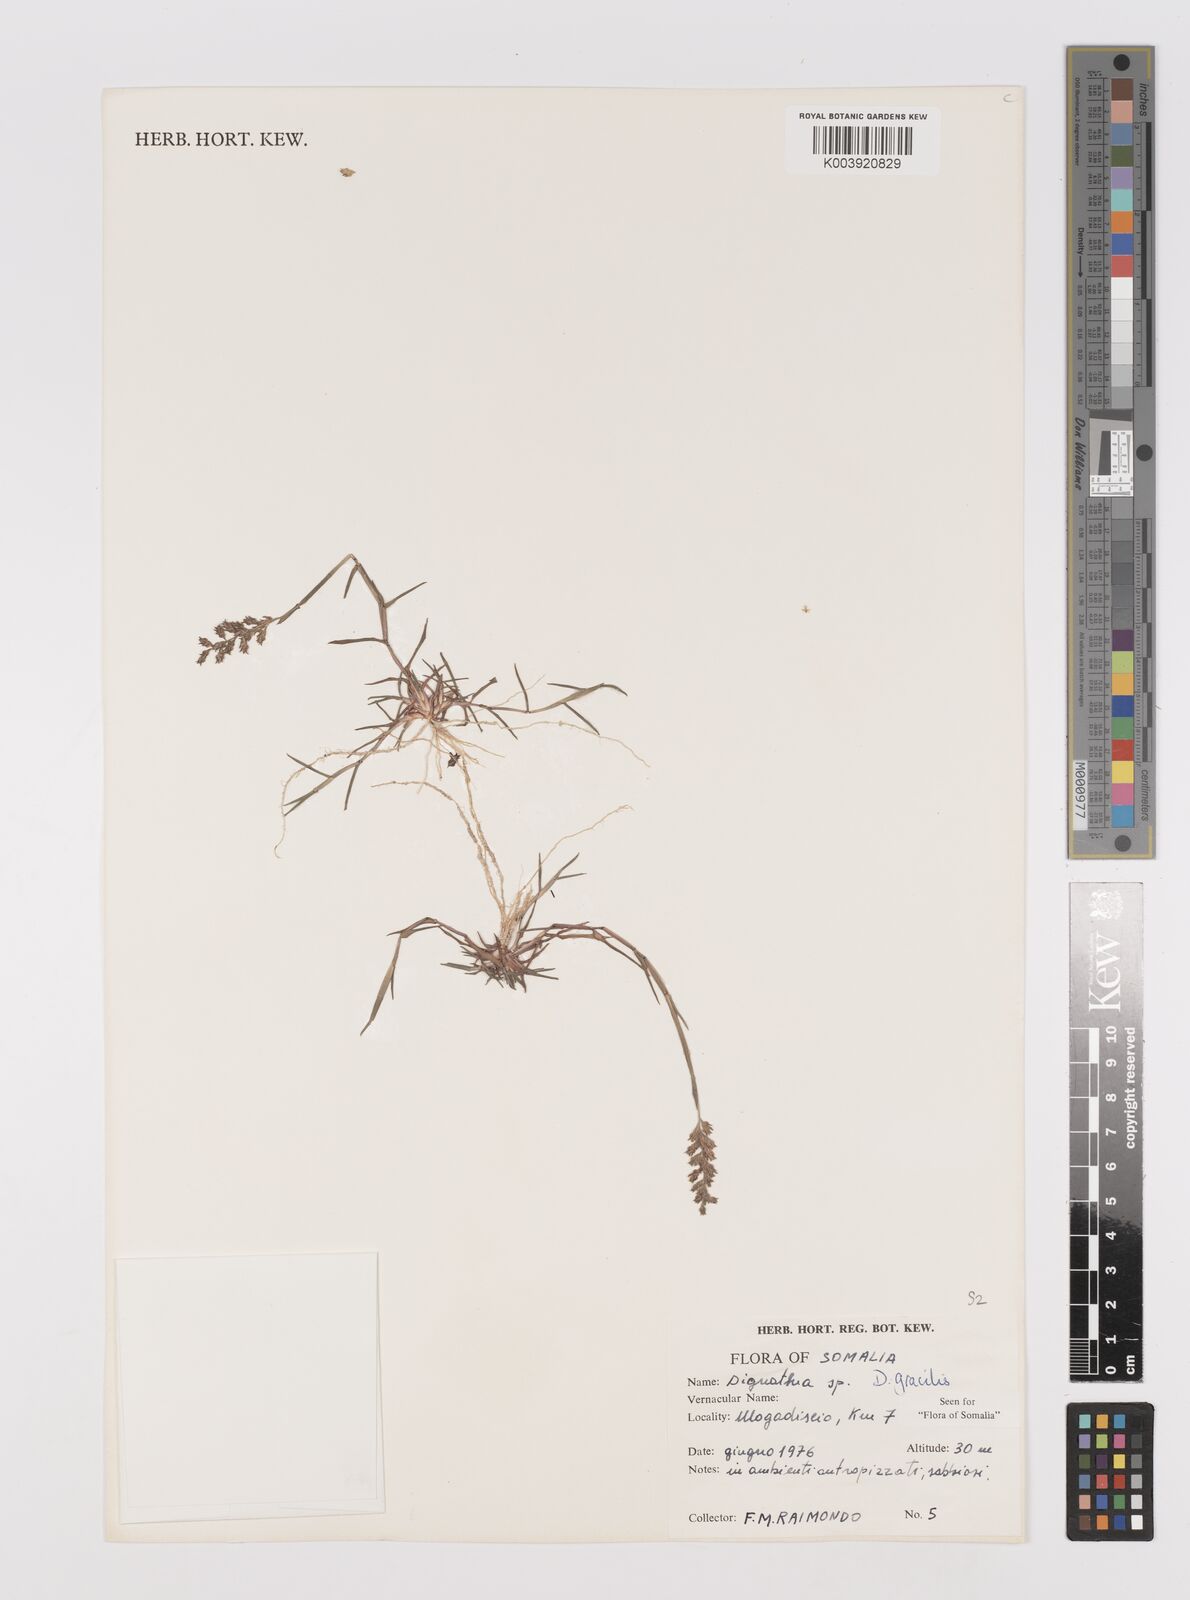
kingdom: Plantae
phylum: Tracheophyta
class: Liliopsida
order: Poales
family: Poaceae
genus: Dignathia
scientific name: Dignathia gracilis
